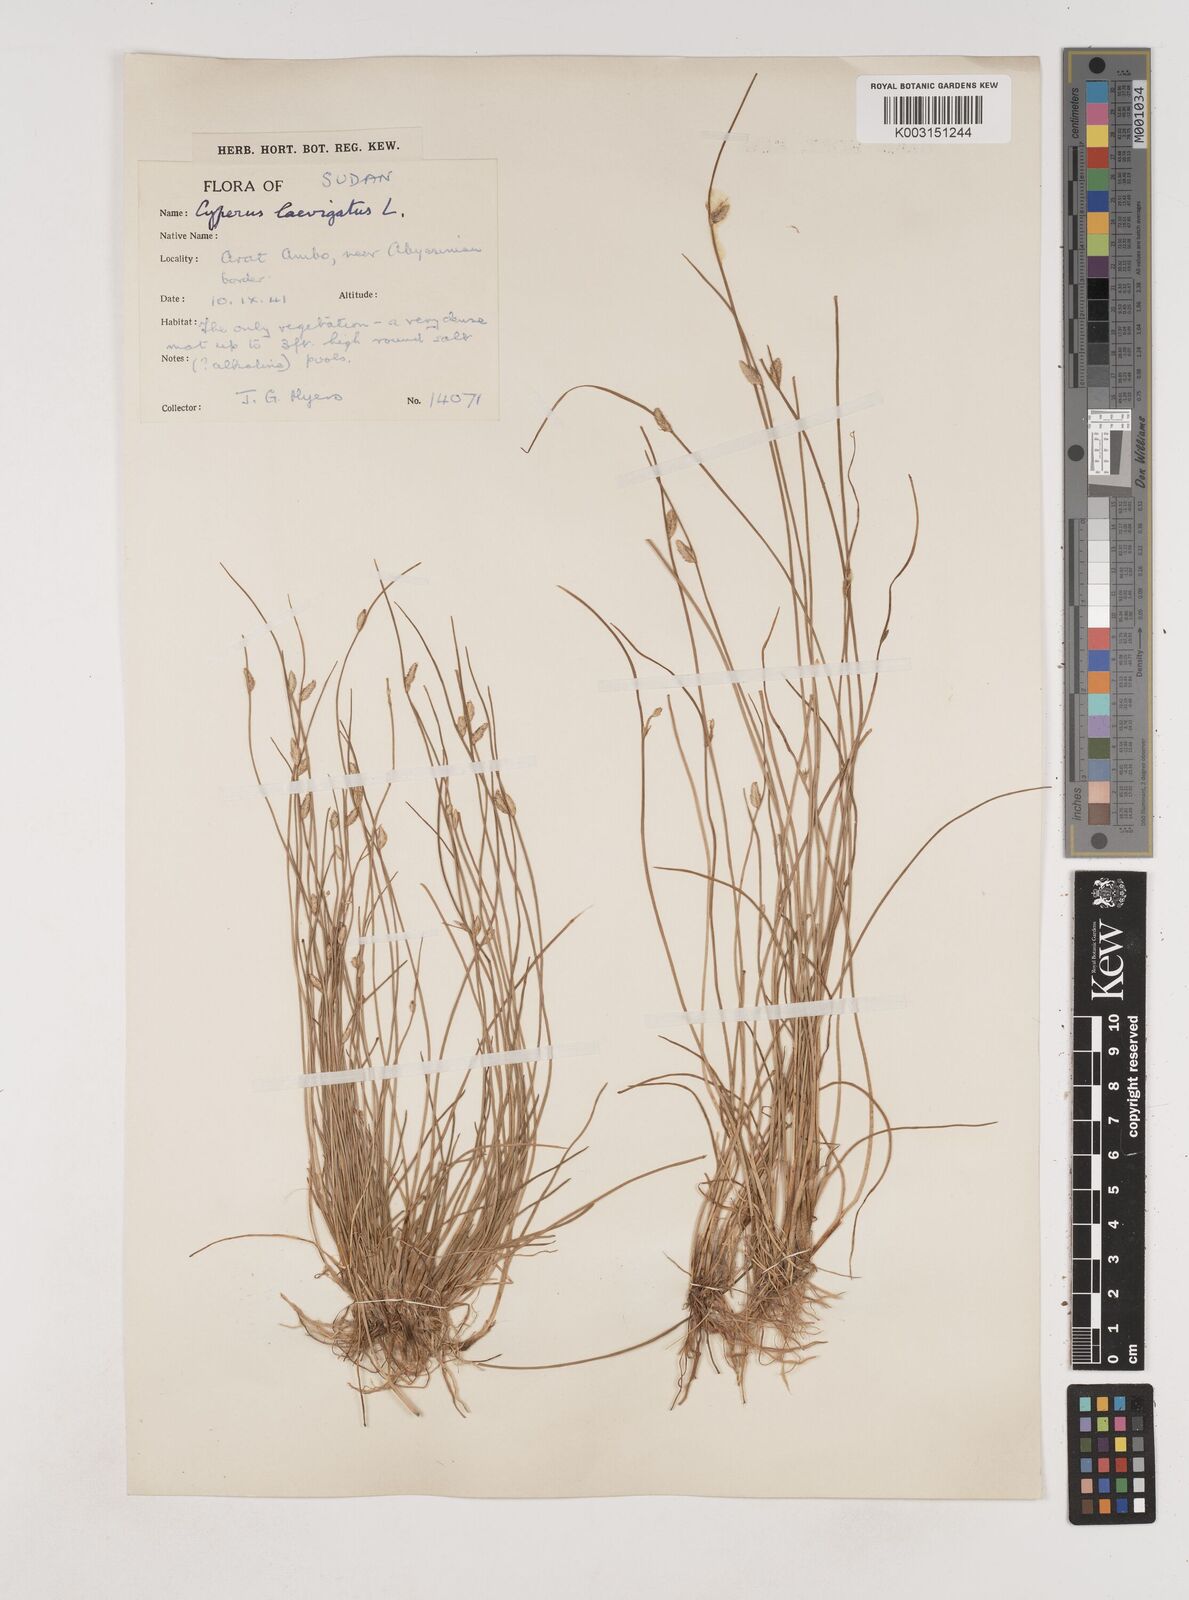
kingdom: Plantae
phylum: Tracheophyta
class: Liliopsida
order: Poales
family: Cyperaceae
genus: Cyperus
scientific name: Cyperus laevigatus
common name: Smooth flat sedge
